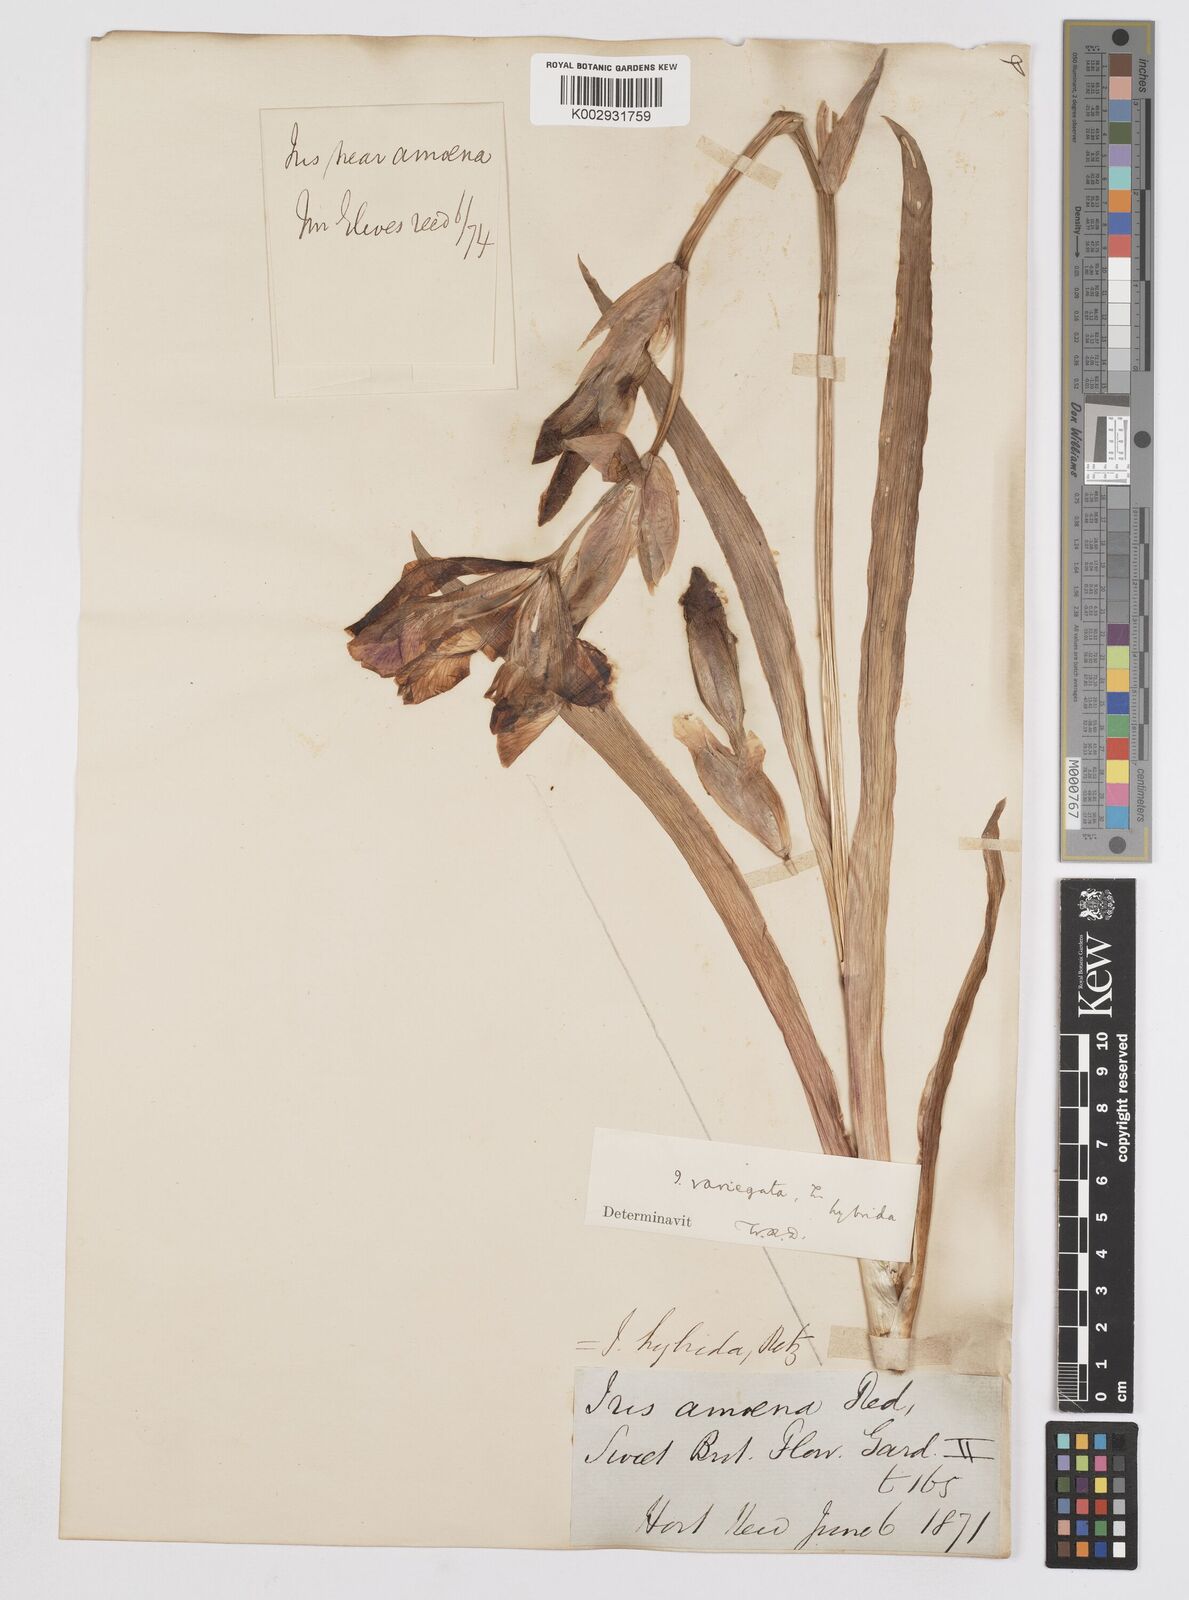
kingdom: Plantae
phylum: Tracheophyta
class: Liliopsida
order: Asparagales
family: Iridaceae
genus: Iris
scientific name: Iris germanica
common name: German iris
